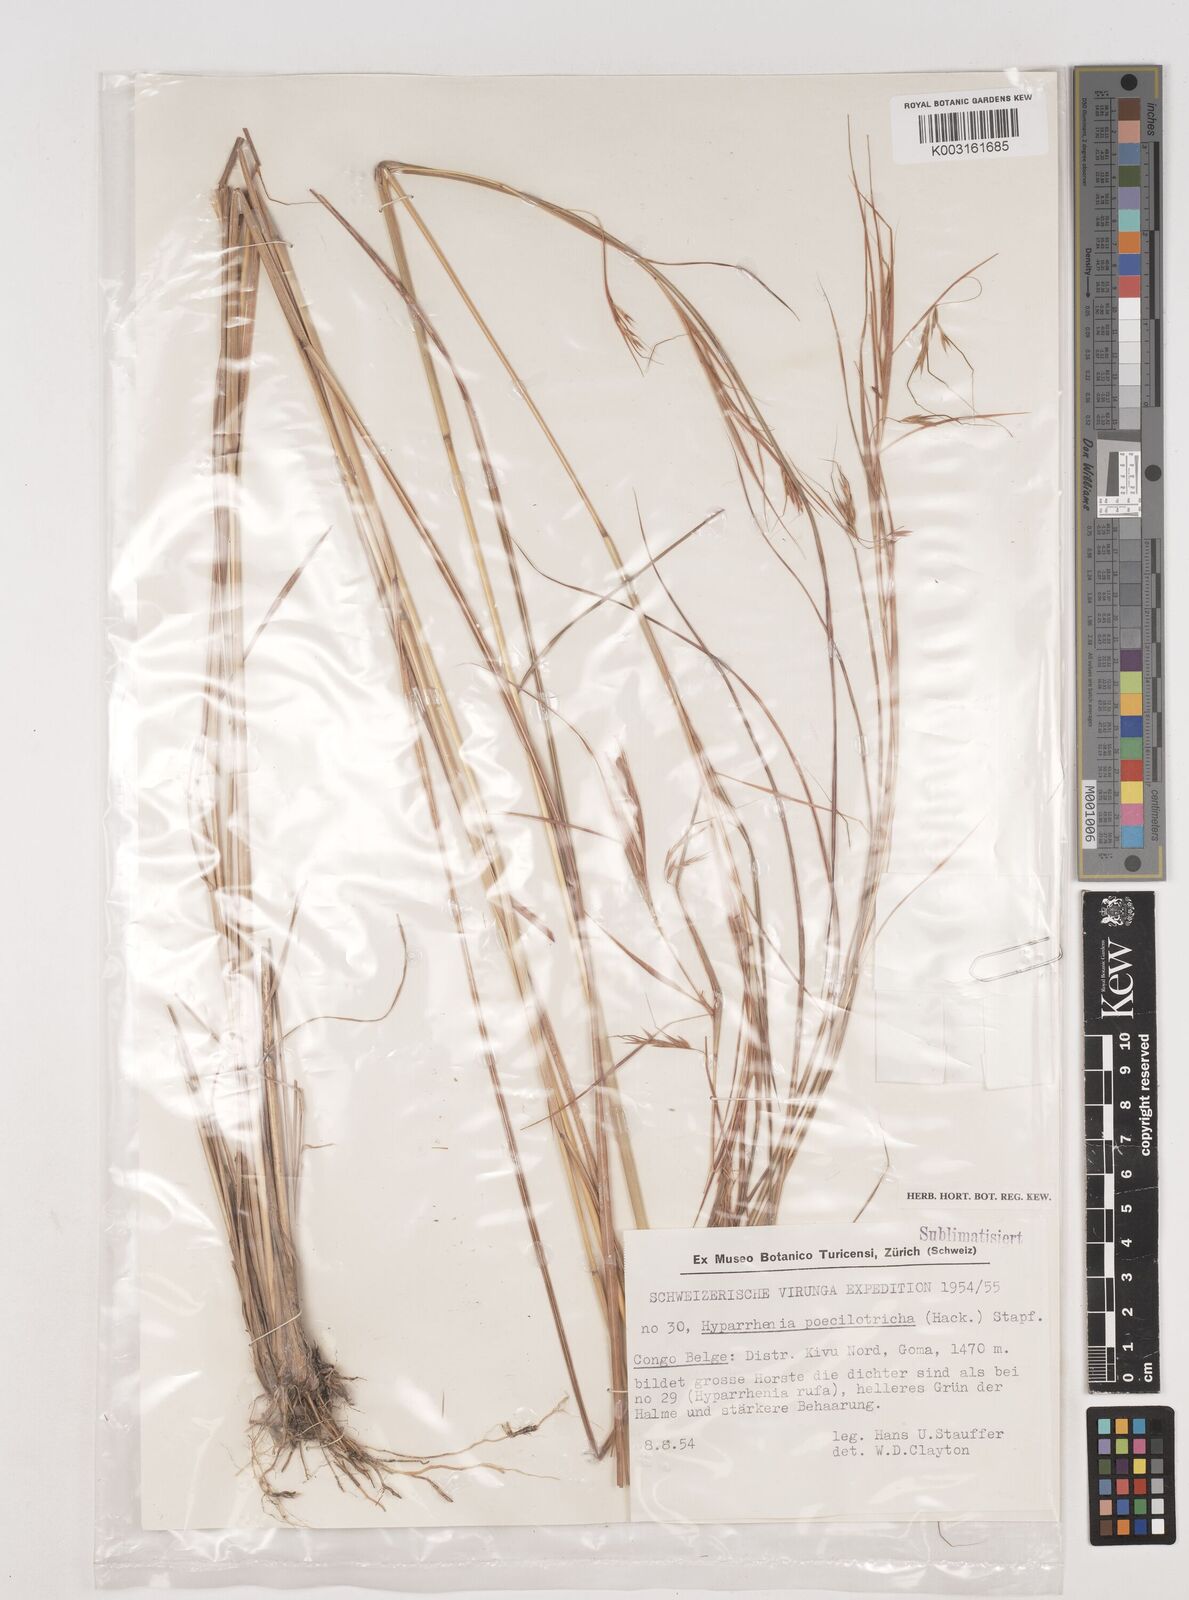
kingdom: Plantae
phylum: Tracheophyta
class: Liliopsida
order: Poales
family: Poaceae
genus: Hyparrhenia
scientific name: Hyparrhenia poecilotricha
